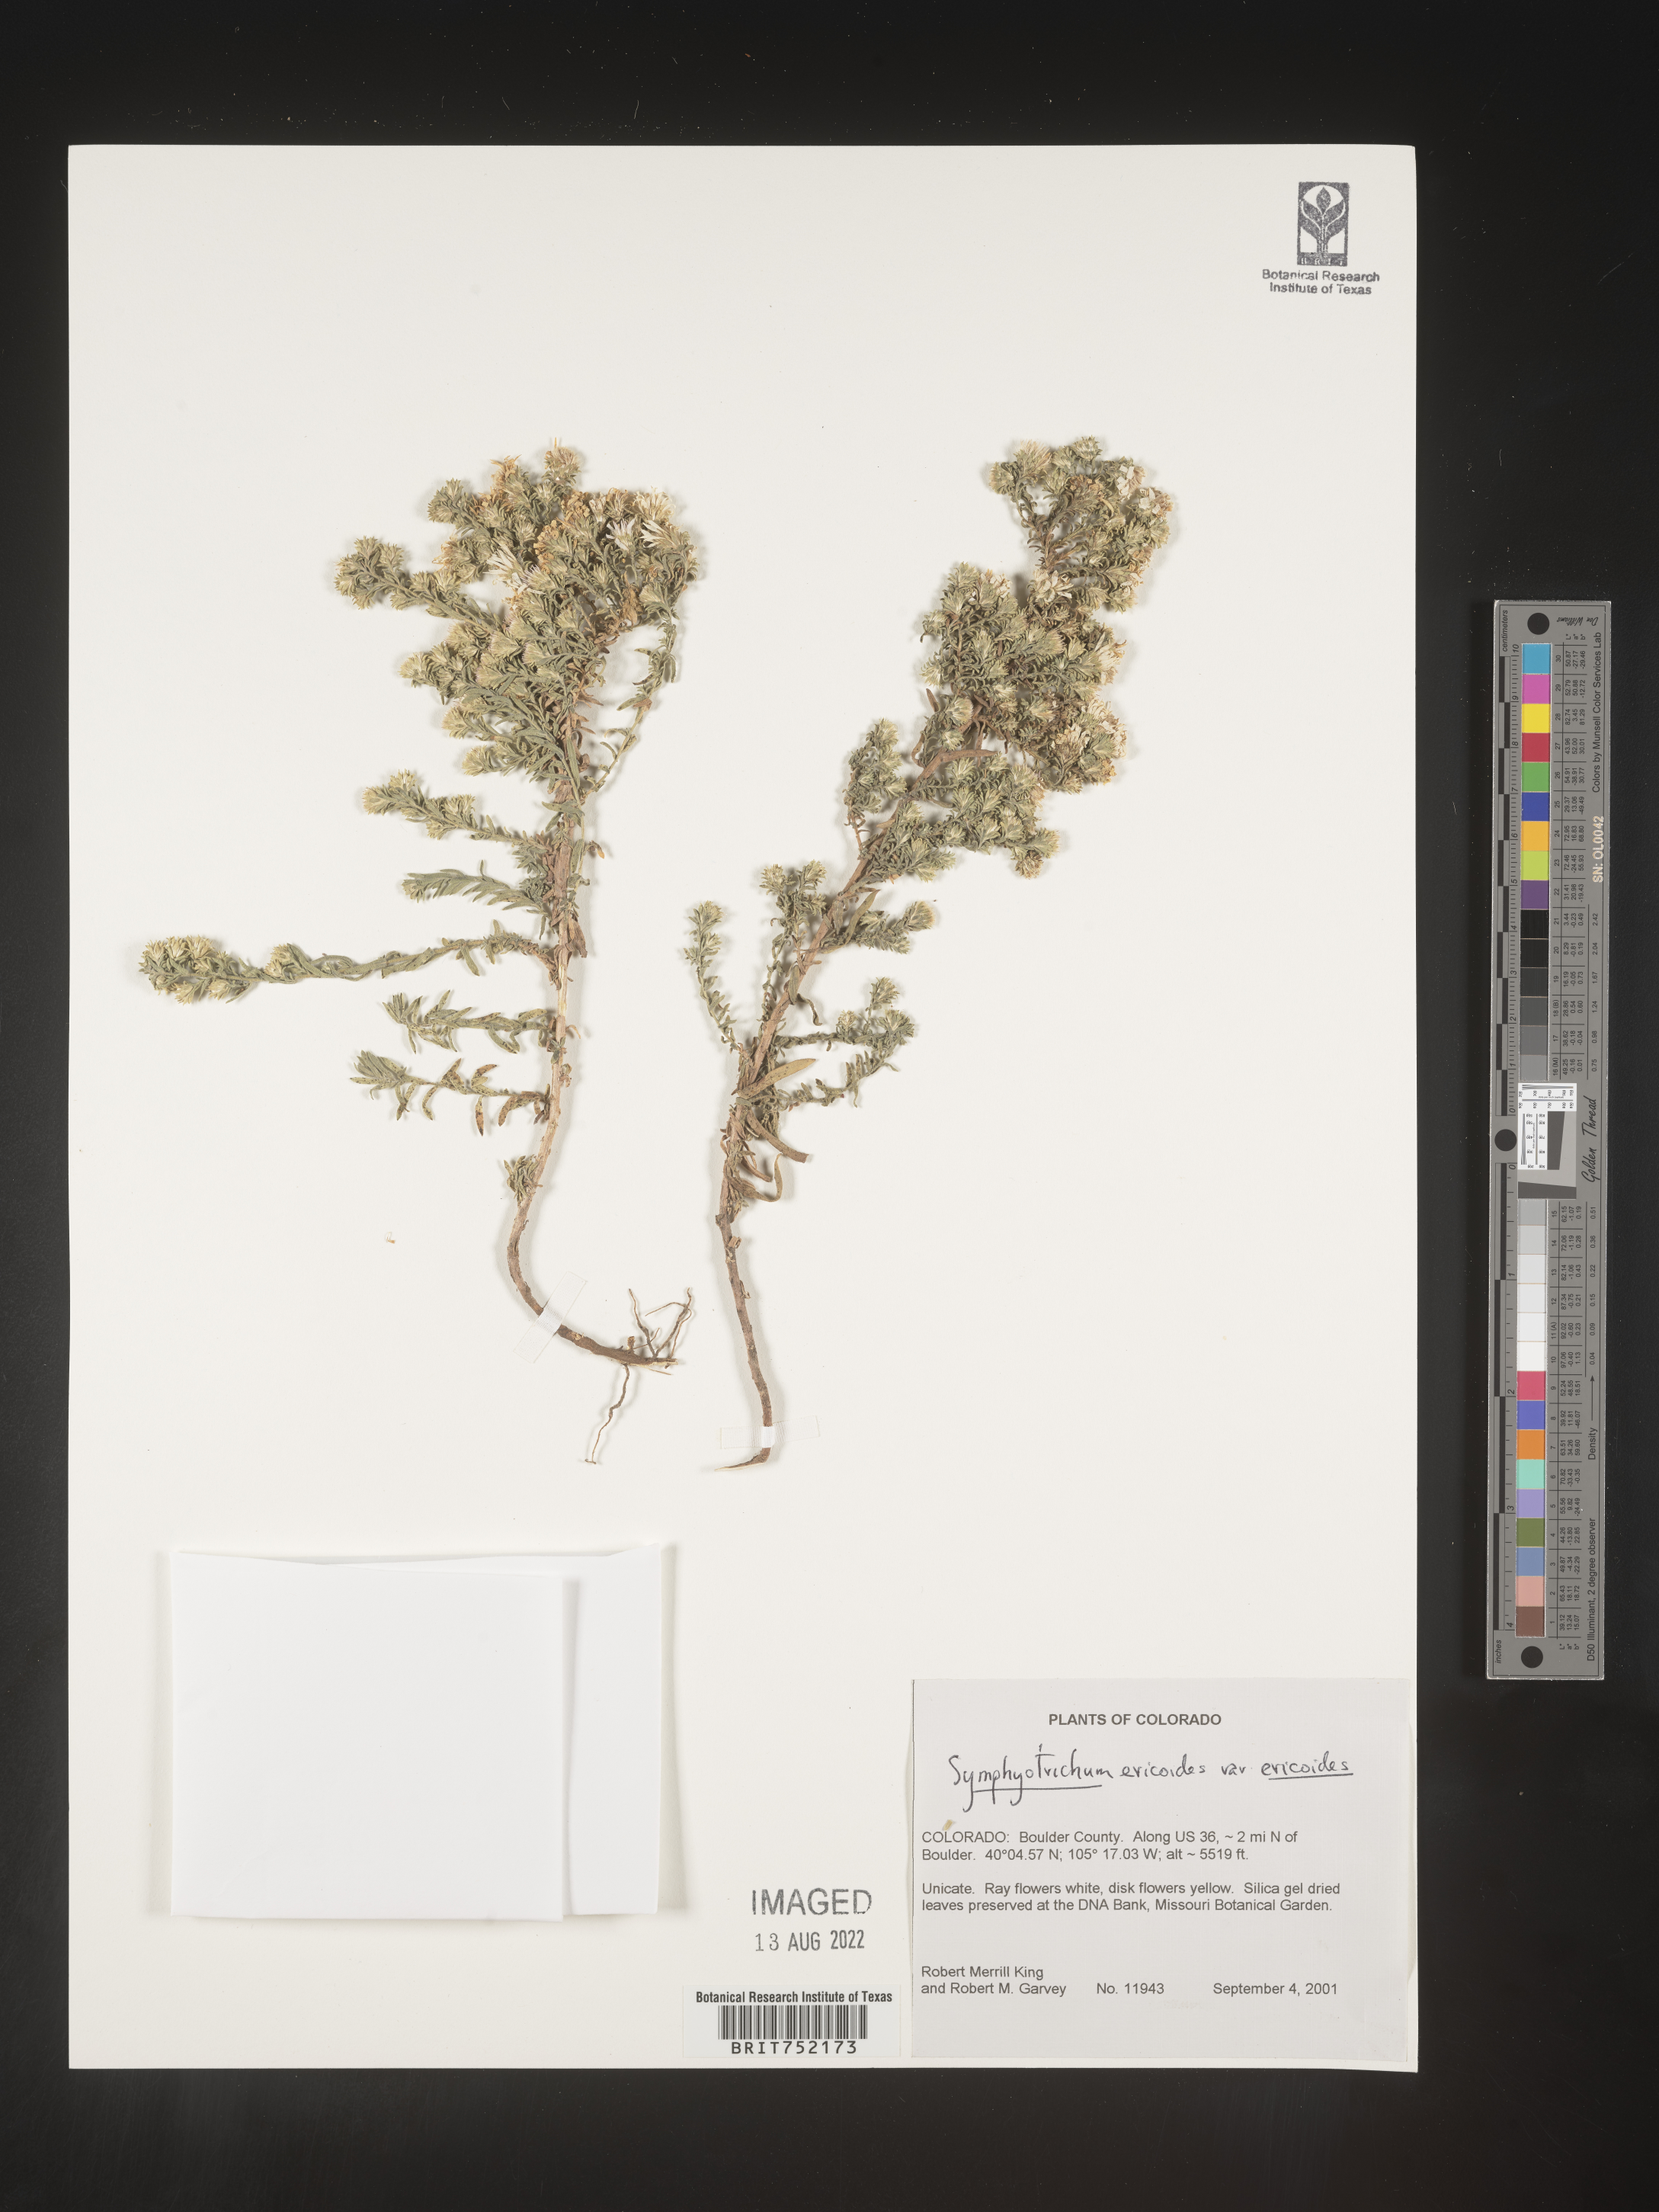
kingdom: Plantae
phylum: Tracheophyta
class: Magnoliopsida
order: Asterales
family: Asteraceae
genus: Symphyotrichum
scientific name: Symphyotrichum ericoides
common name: Heath aster
